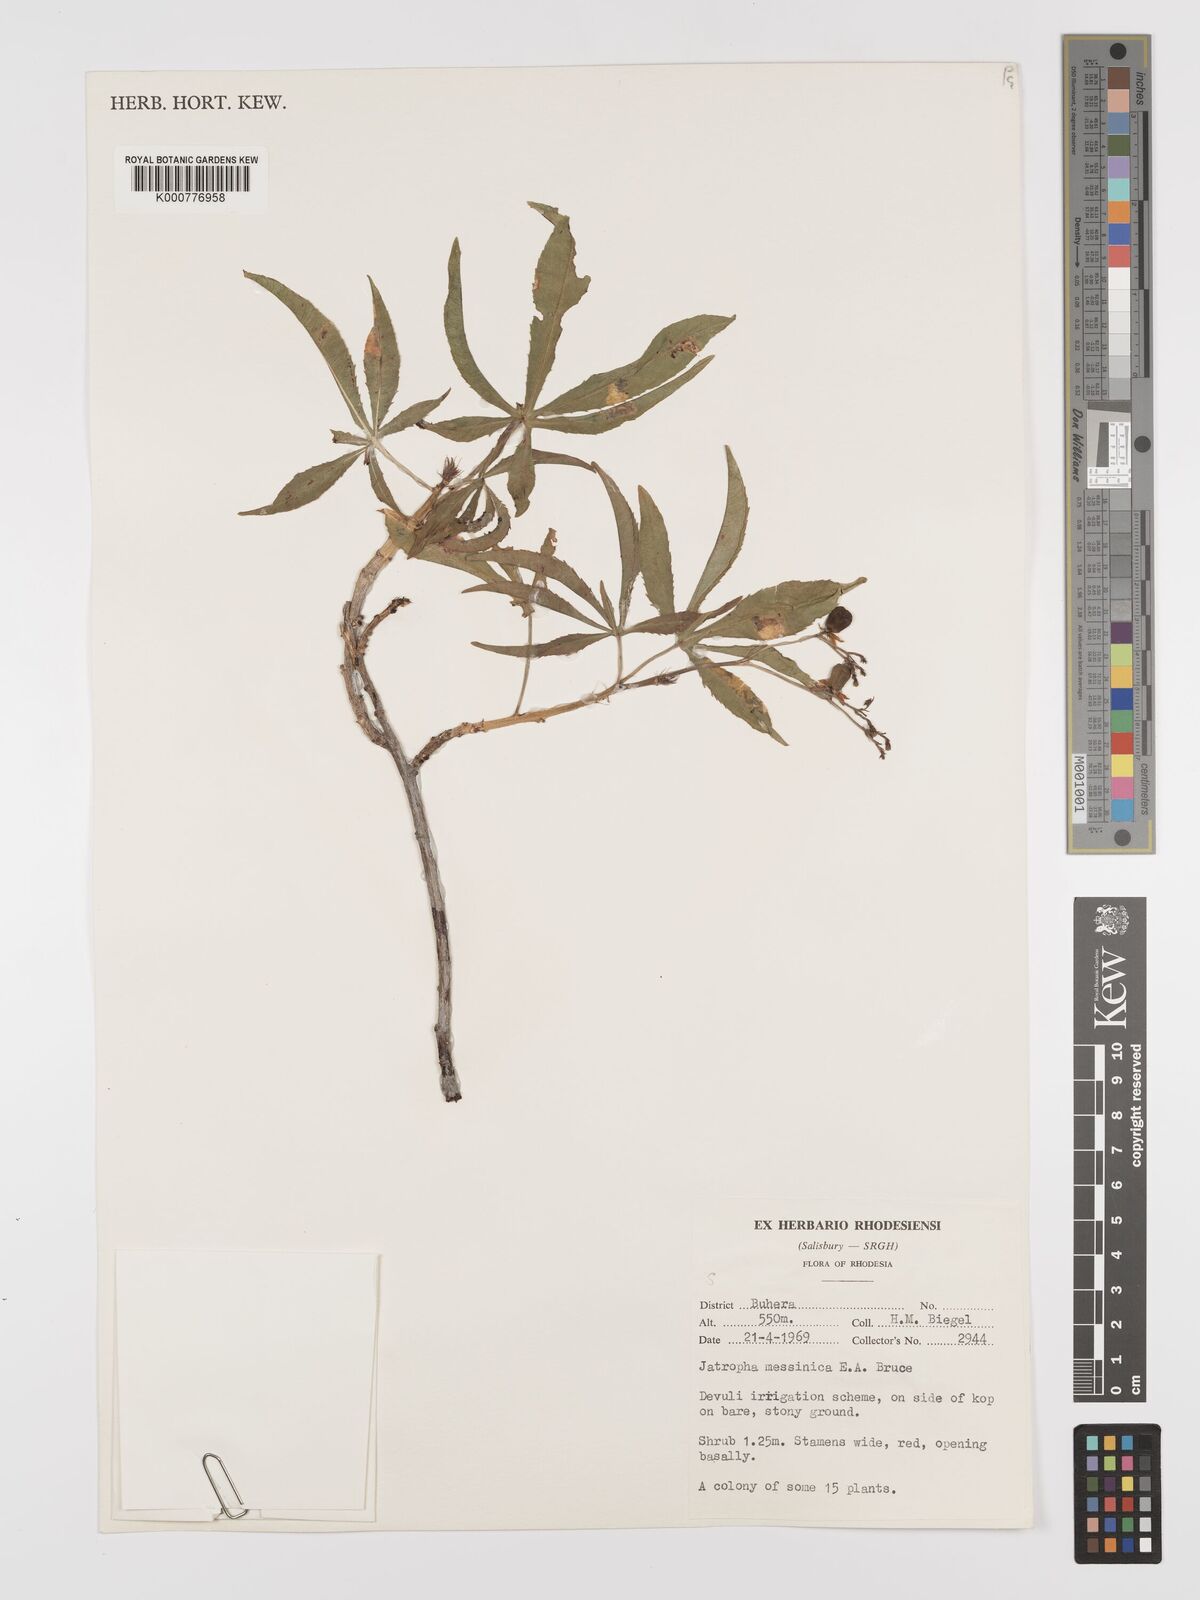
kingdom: Plantae
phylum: Tracheophyta
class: Magnoliopsida
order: Malpighiales
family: Euphorbiaceae
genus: Jatropha
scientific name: Jatropha spicata
